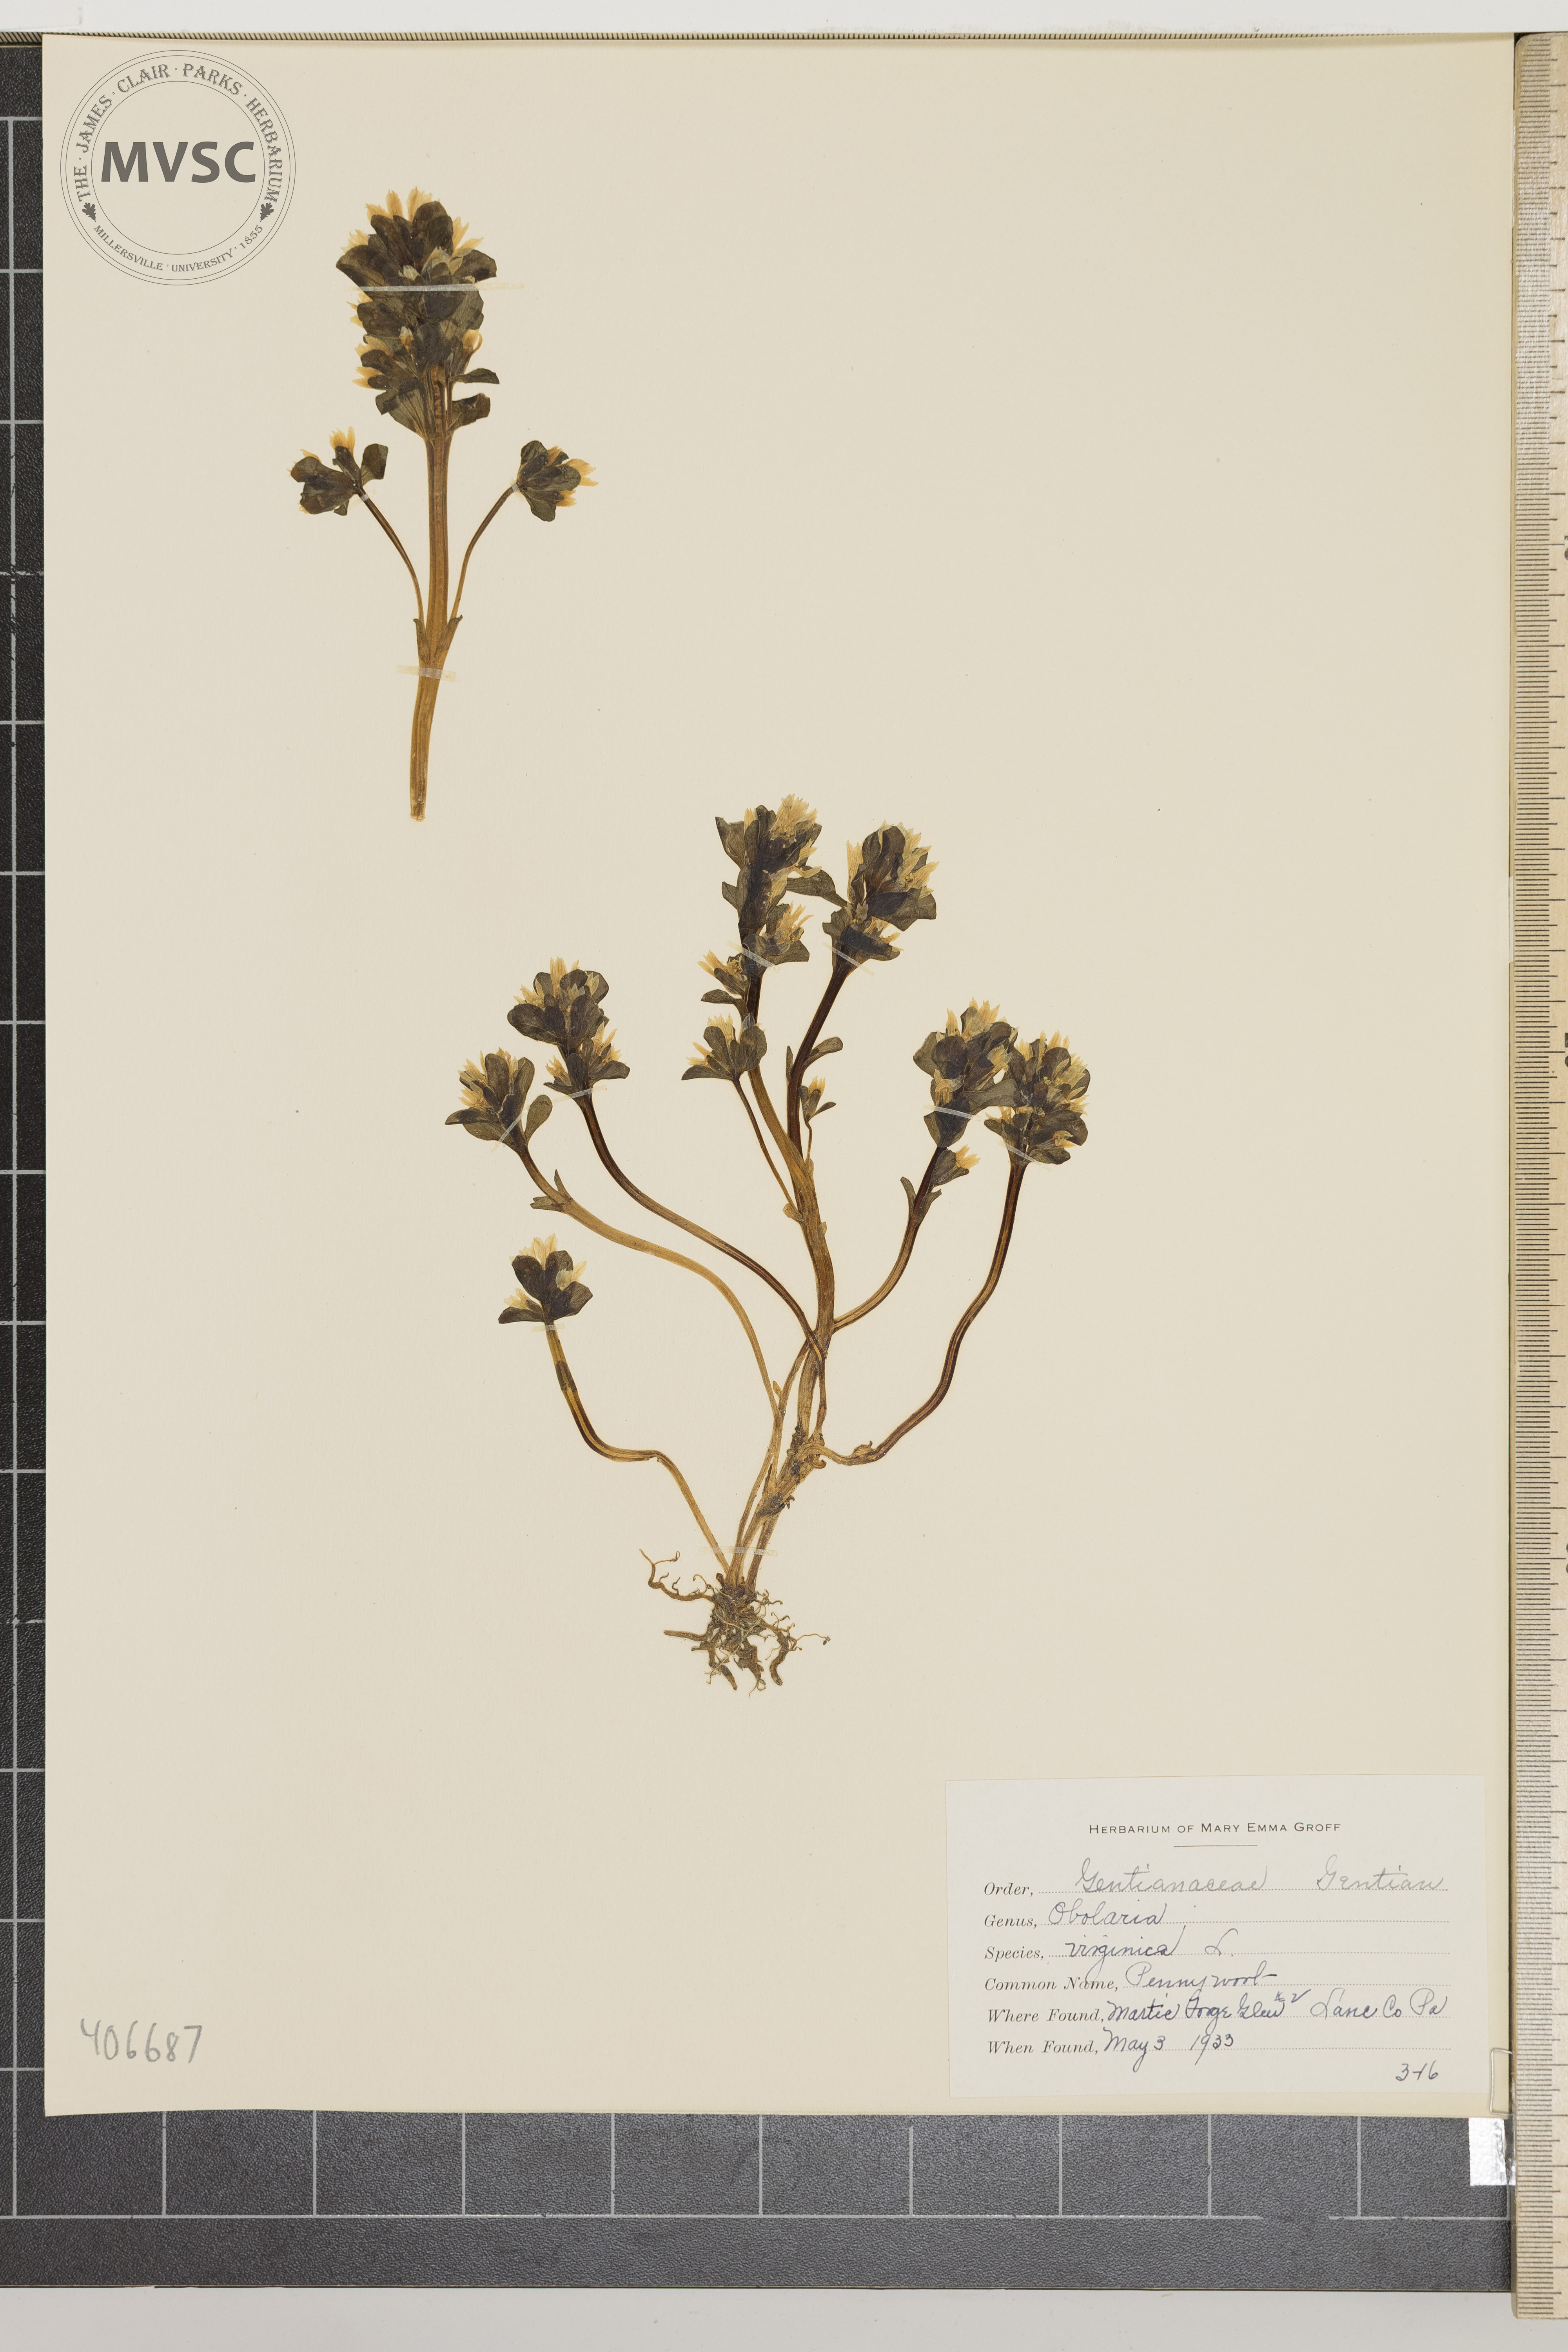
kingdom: Plantae
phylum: Tracheophyta
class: Magnoliopsida
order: Gentianales
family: Gentianaceae
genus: Obolaria
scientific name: Obolaria virginica
